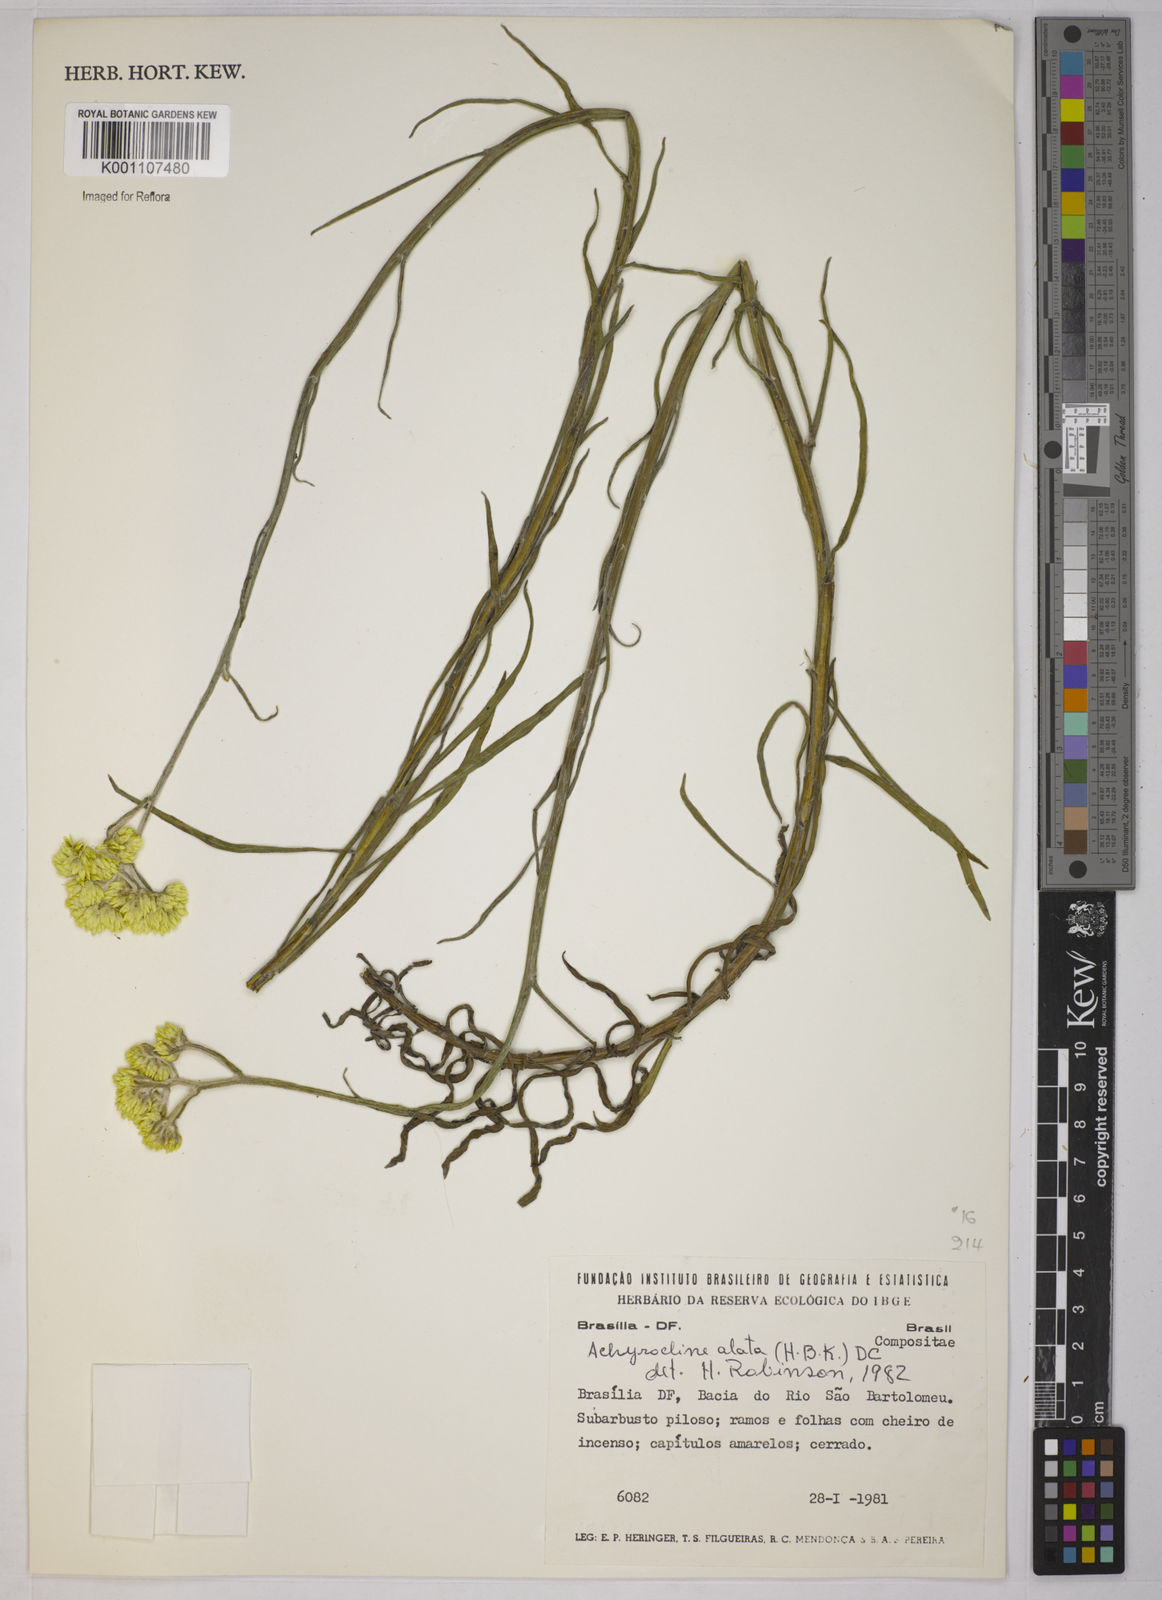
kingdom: Plantae
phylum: Tracheophyta
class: Magnoliopsida
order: Asterales
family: Asteraceae
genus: Achyrocline
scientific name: Achyrocline alata
